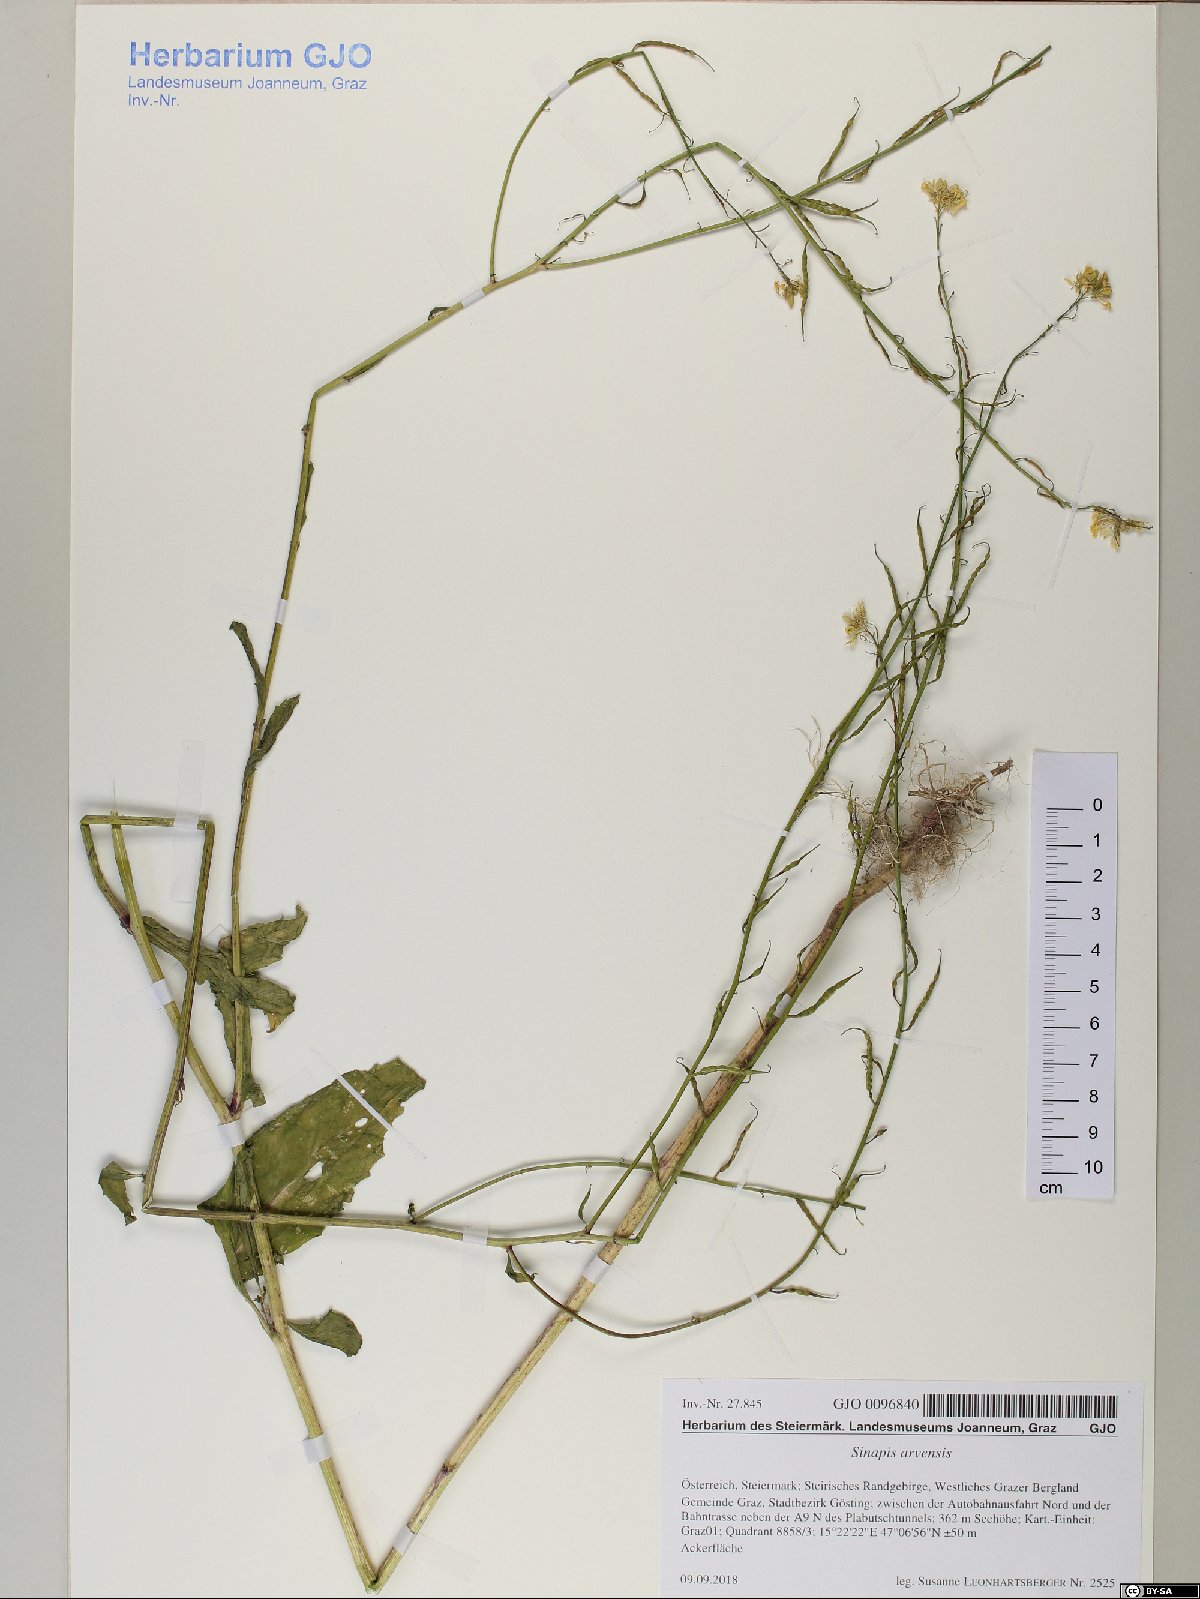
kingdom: Plantae
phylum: Tracheophyta
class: Magnoliopsida
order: Brassicales
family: Brassicaceae
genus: Sinapis
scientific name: Sinapis arvensis
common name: Charlock
